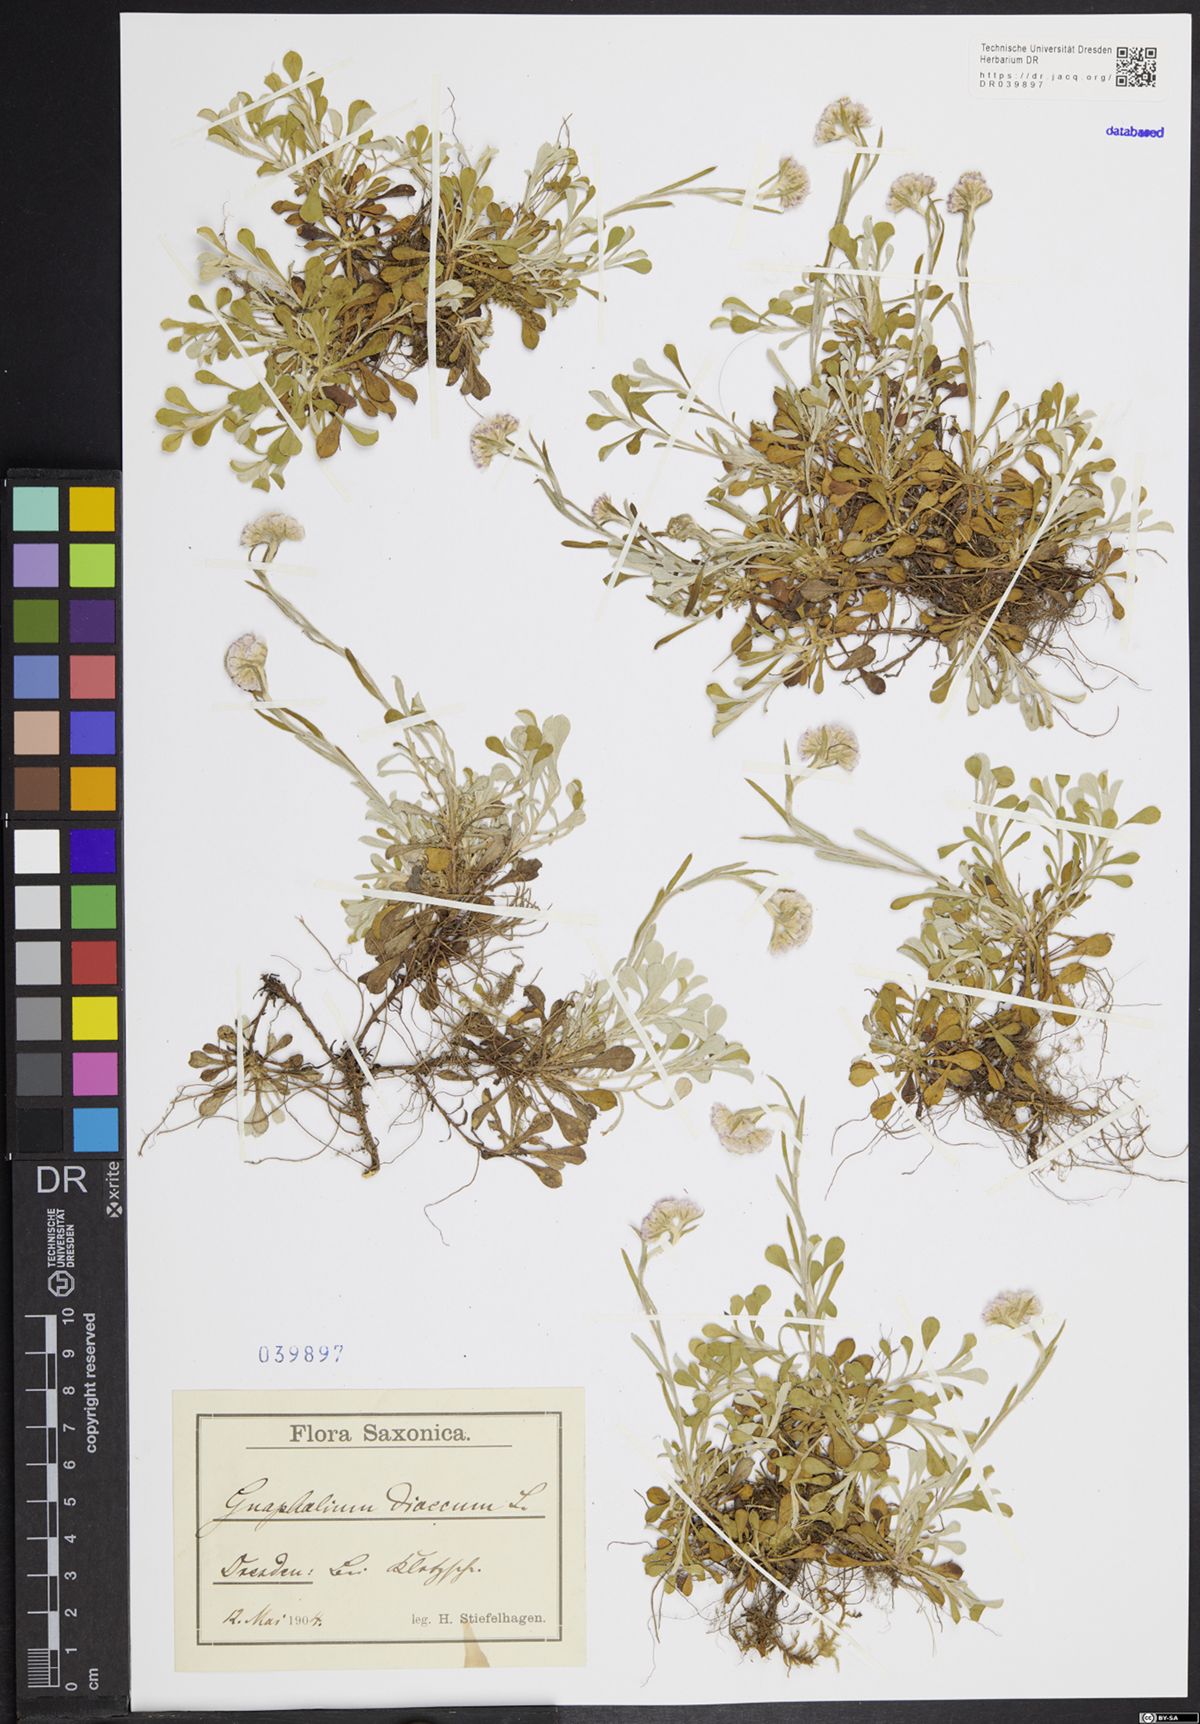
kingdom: Plantae
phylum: Tracheophyta
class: Magnoliopsida
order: Asterales
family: Asteraceae
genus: Antennaria
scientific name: Antennaria dioica
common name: Mountain everlasting
